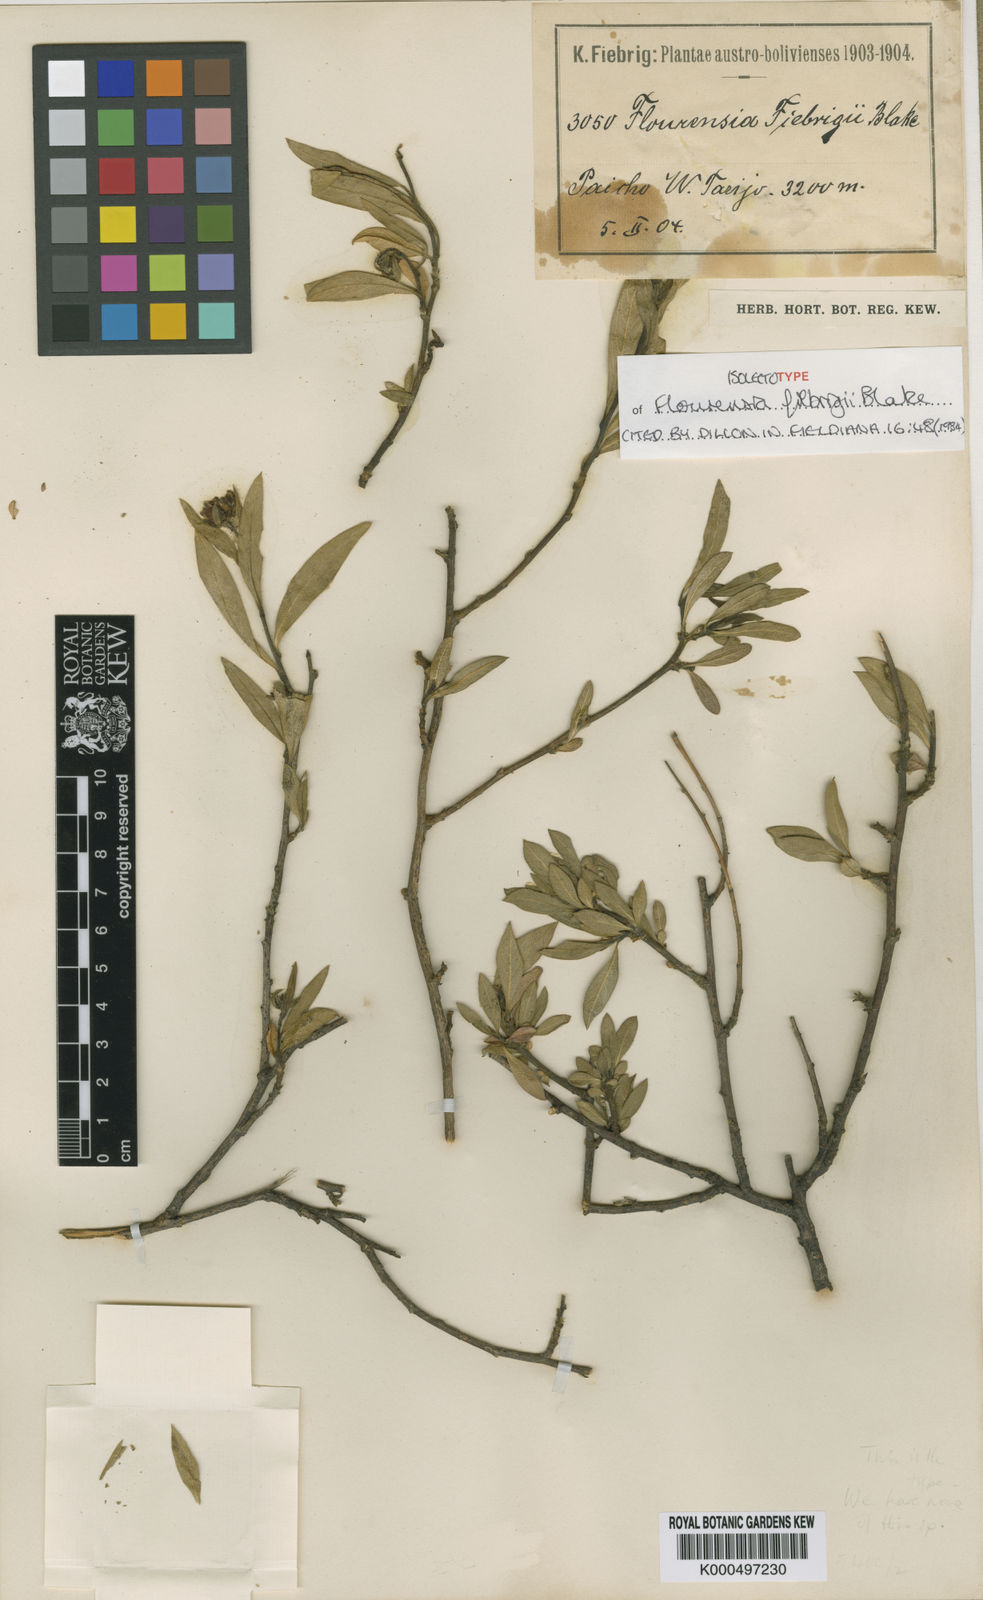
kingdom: Plantae
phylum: Tracheophyta
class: Magnoliopsida
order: Asterales
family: Asteraceae
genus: Flourensia
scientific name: Flourensia fiebrigii
